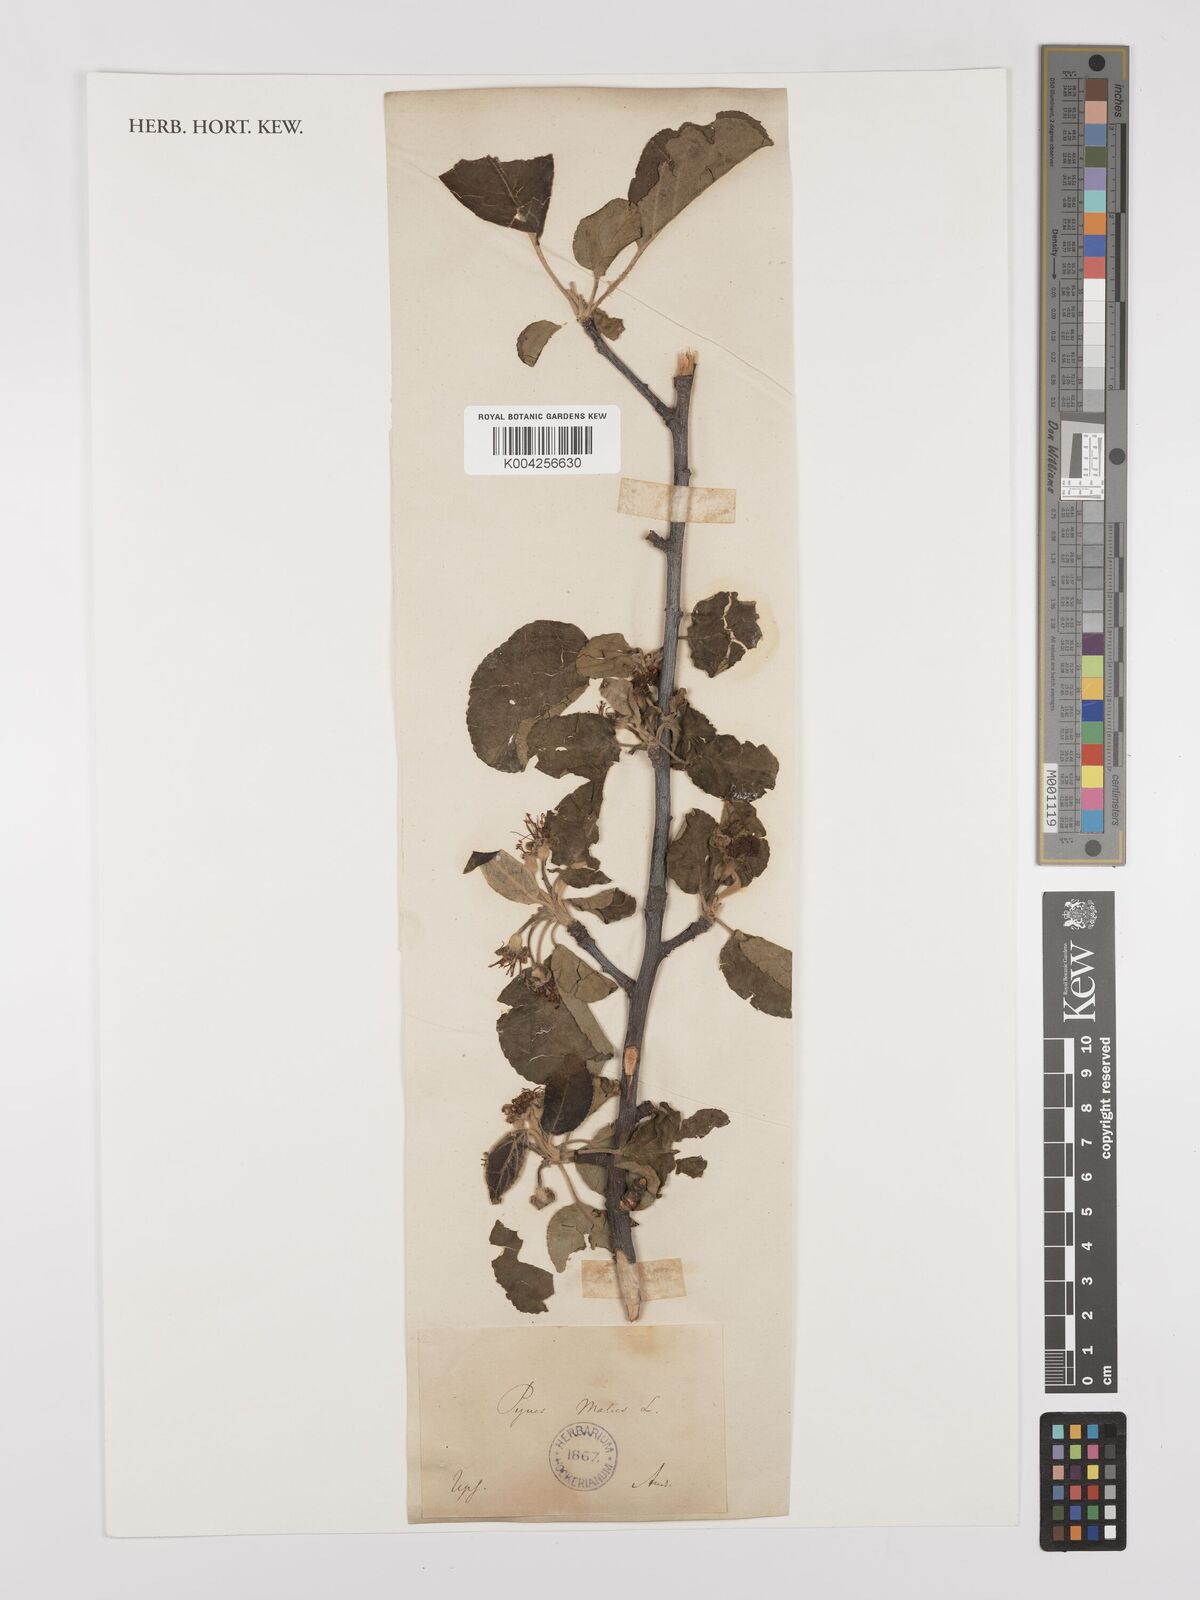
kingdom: Plantae
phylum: Tracheophyta
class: Magnoliopsida
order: Rosales
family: Rosaceae
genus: Malus
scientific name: Malus domestica
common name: Apple
